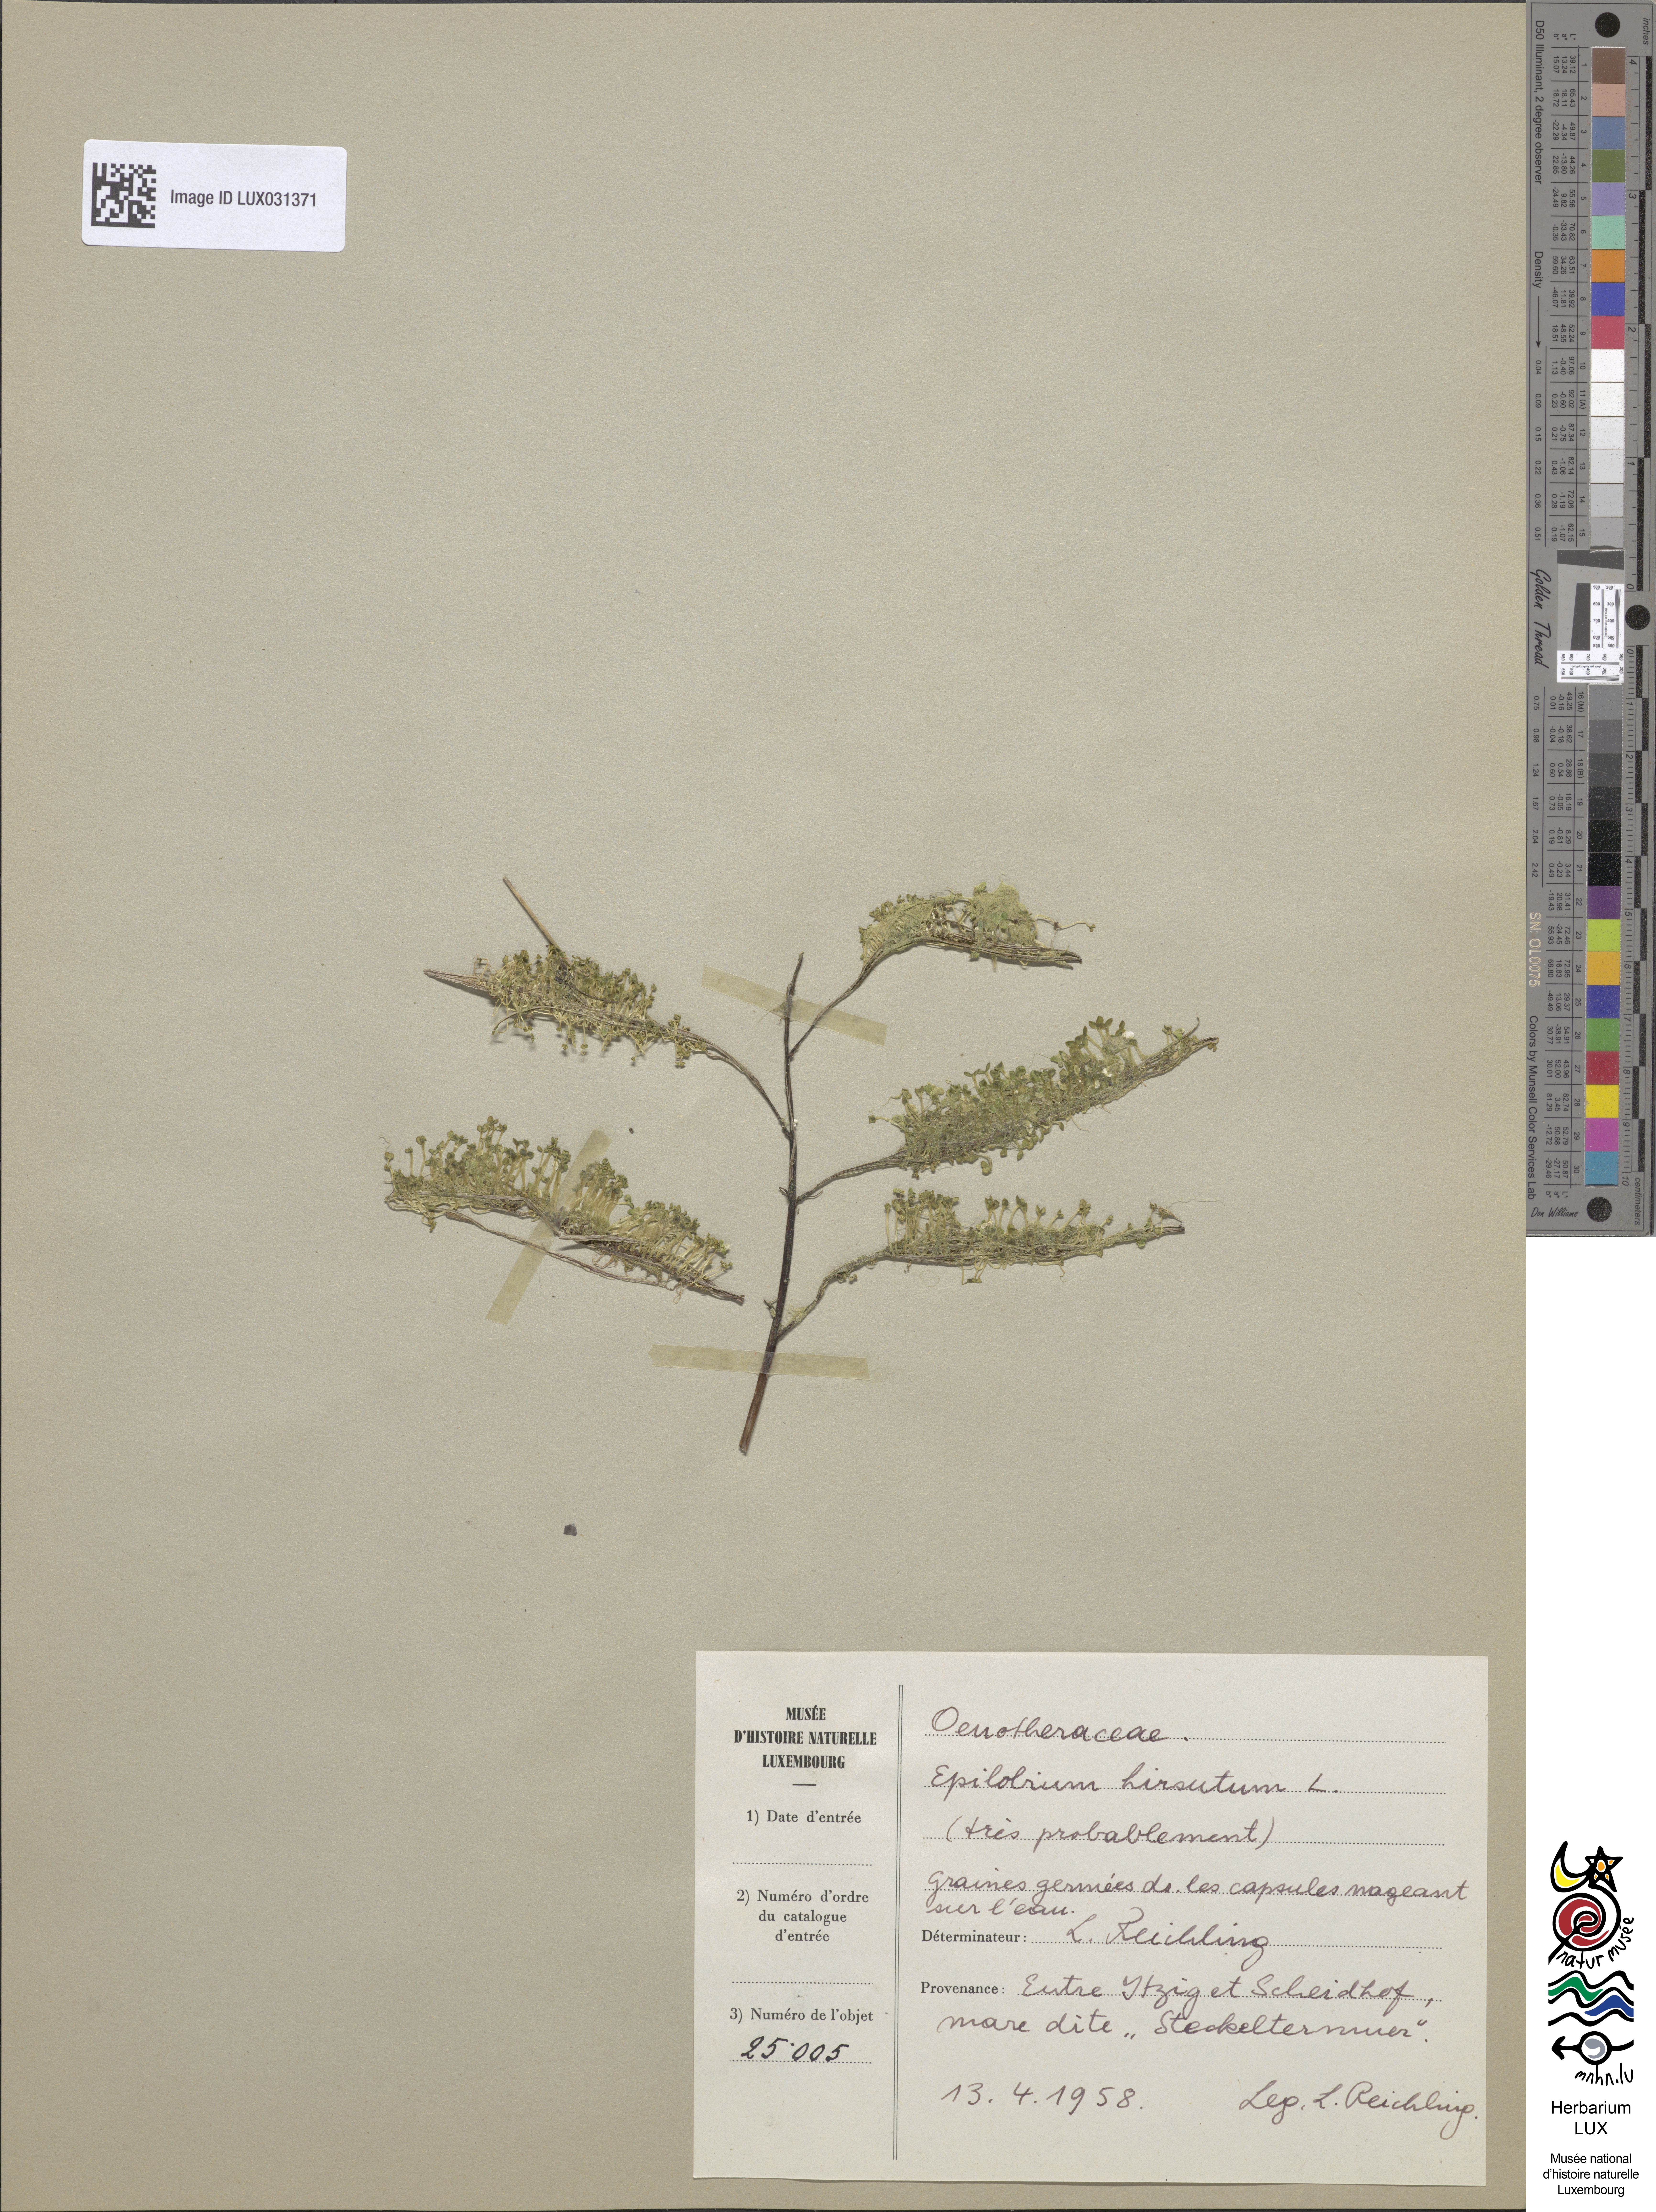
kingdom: Plantae
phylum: Tracheophyta
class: Magnoliopsida
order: Myrtales
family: Onagraceae
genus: Epilobium
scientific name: Epilobium hirsutum
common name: Great willowherb
